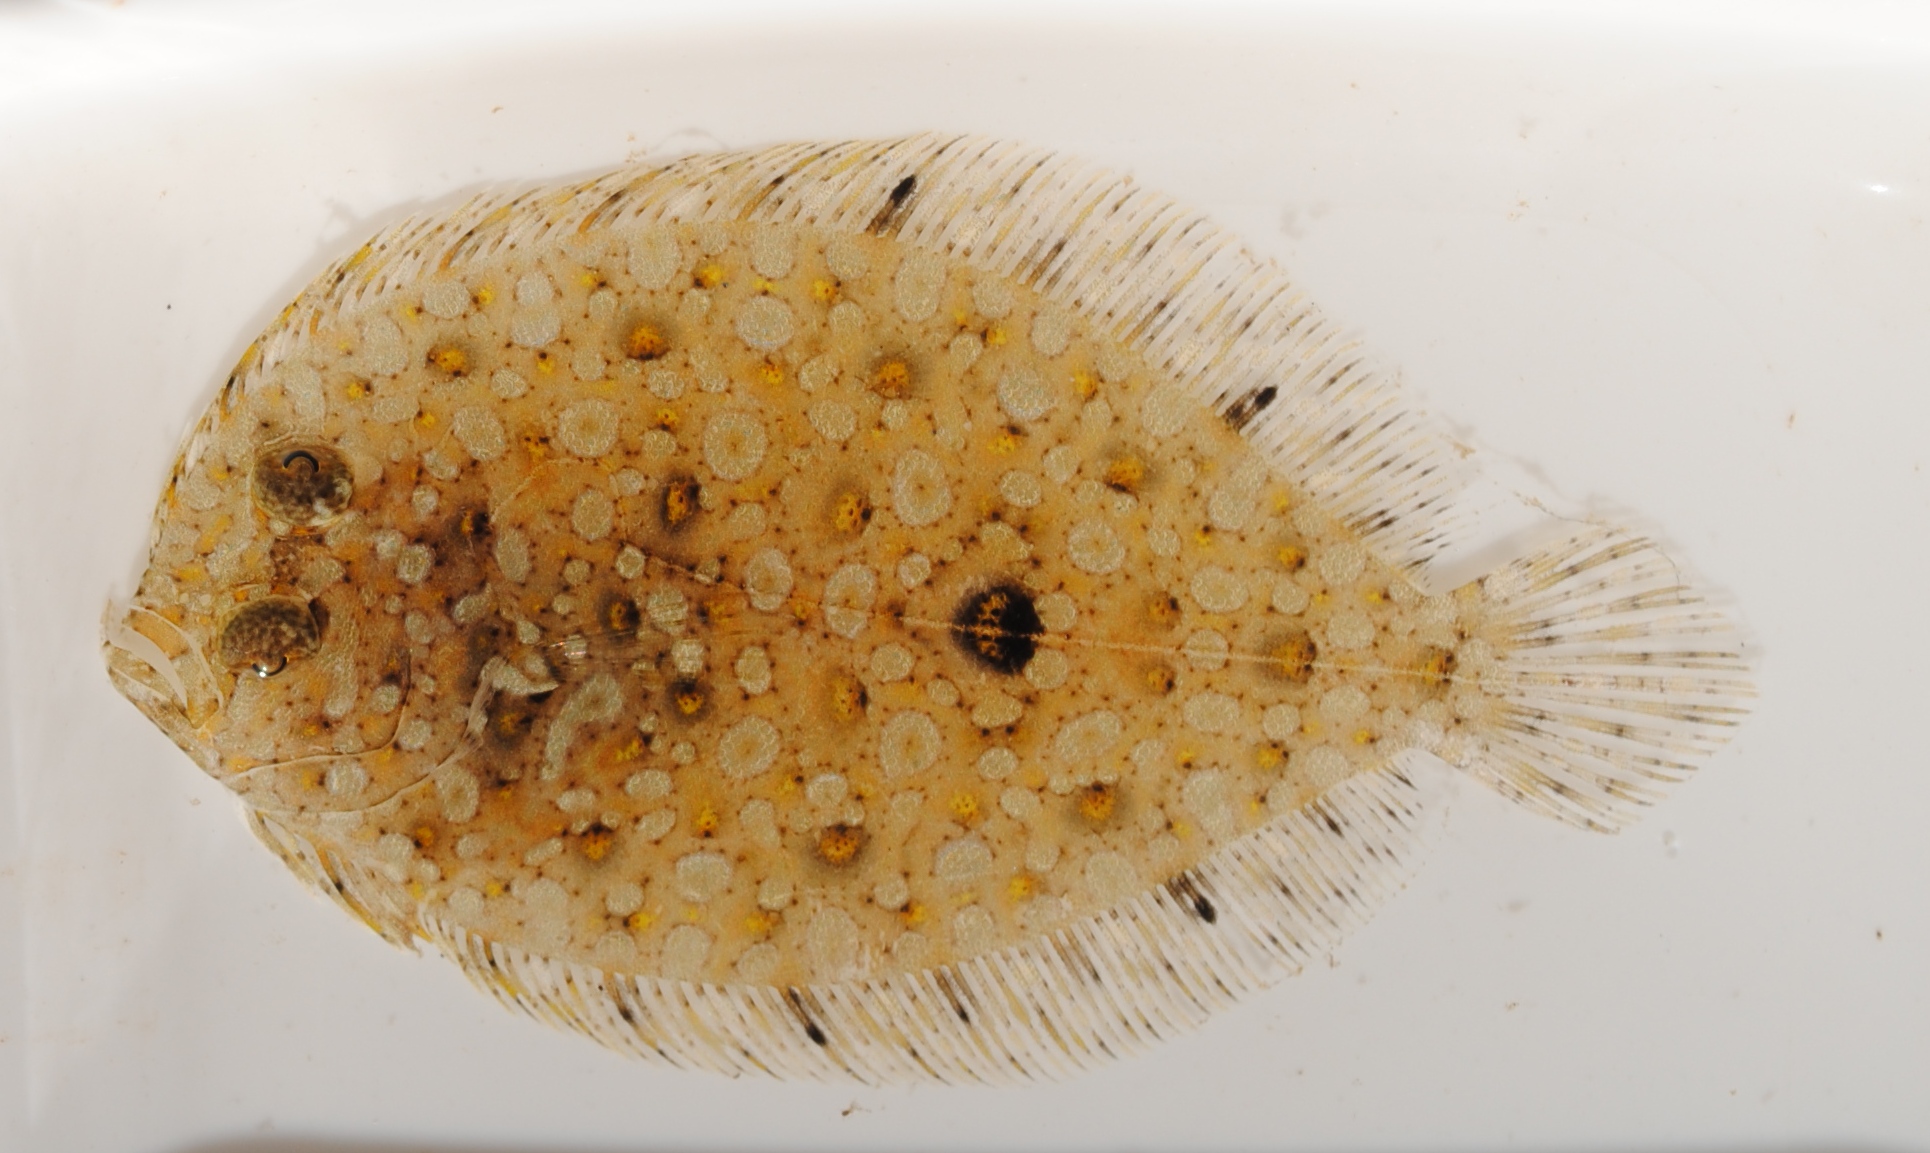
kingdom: Animalia
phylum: Chordata
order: Pleuronectiformes
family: Bothidae
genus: Bothus
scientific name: Bothus pantherinus
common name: Leopard flounder
